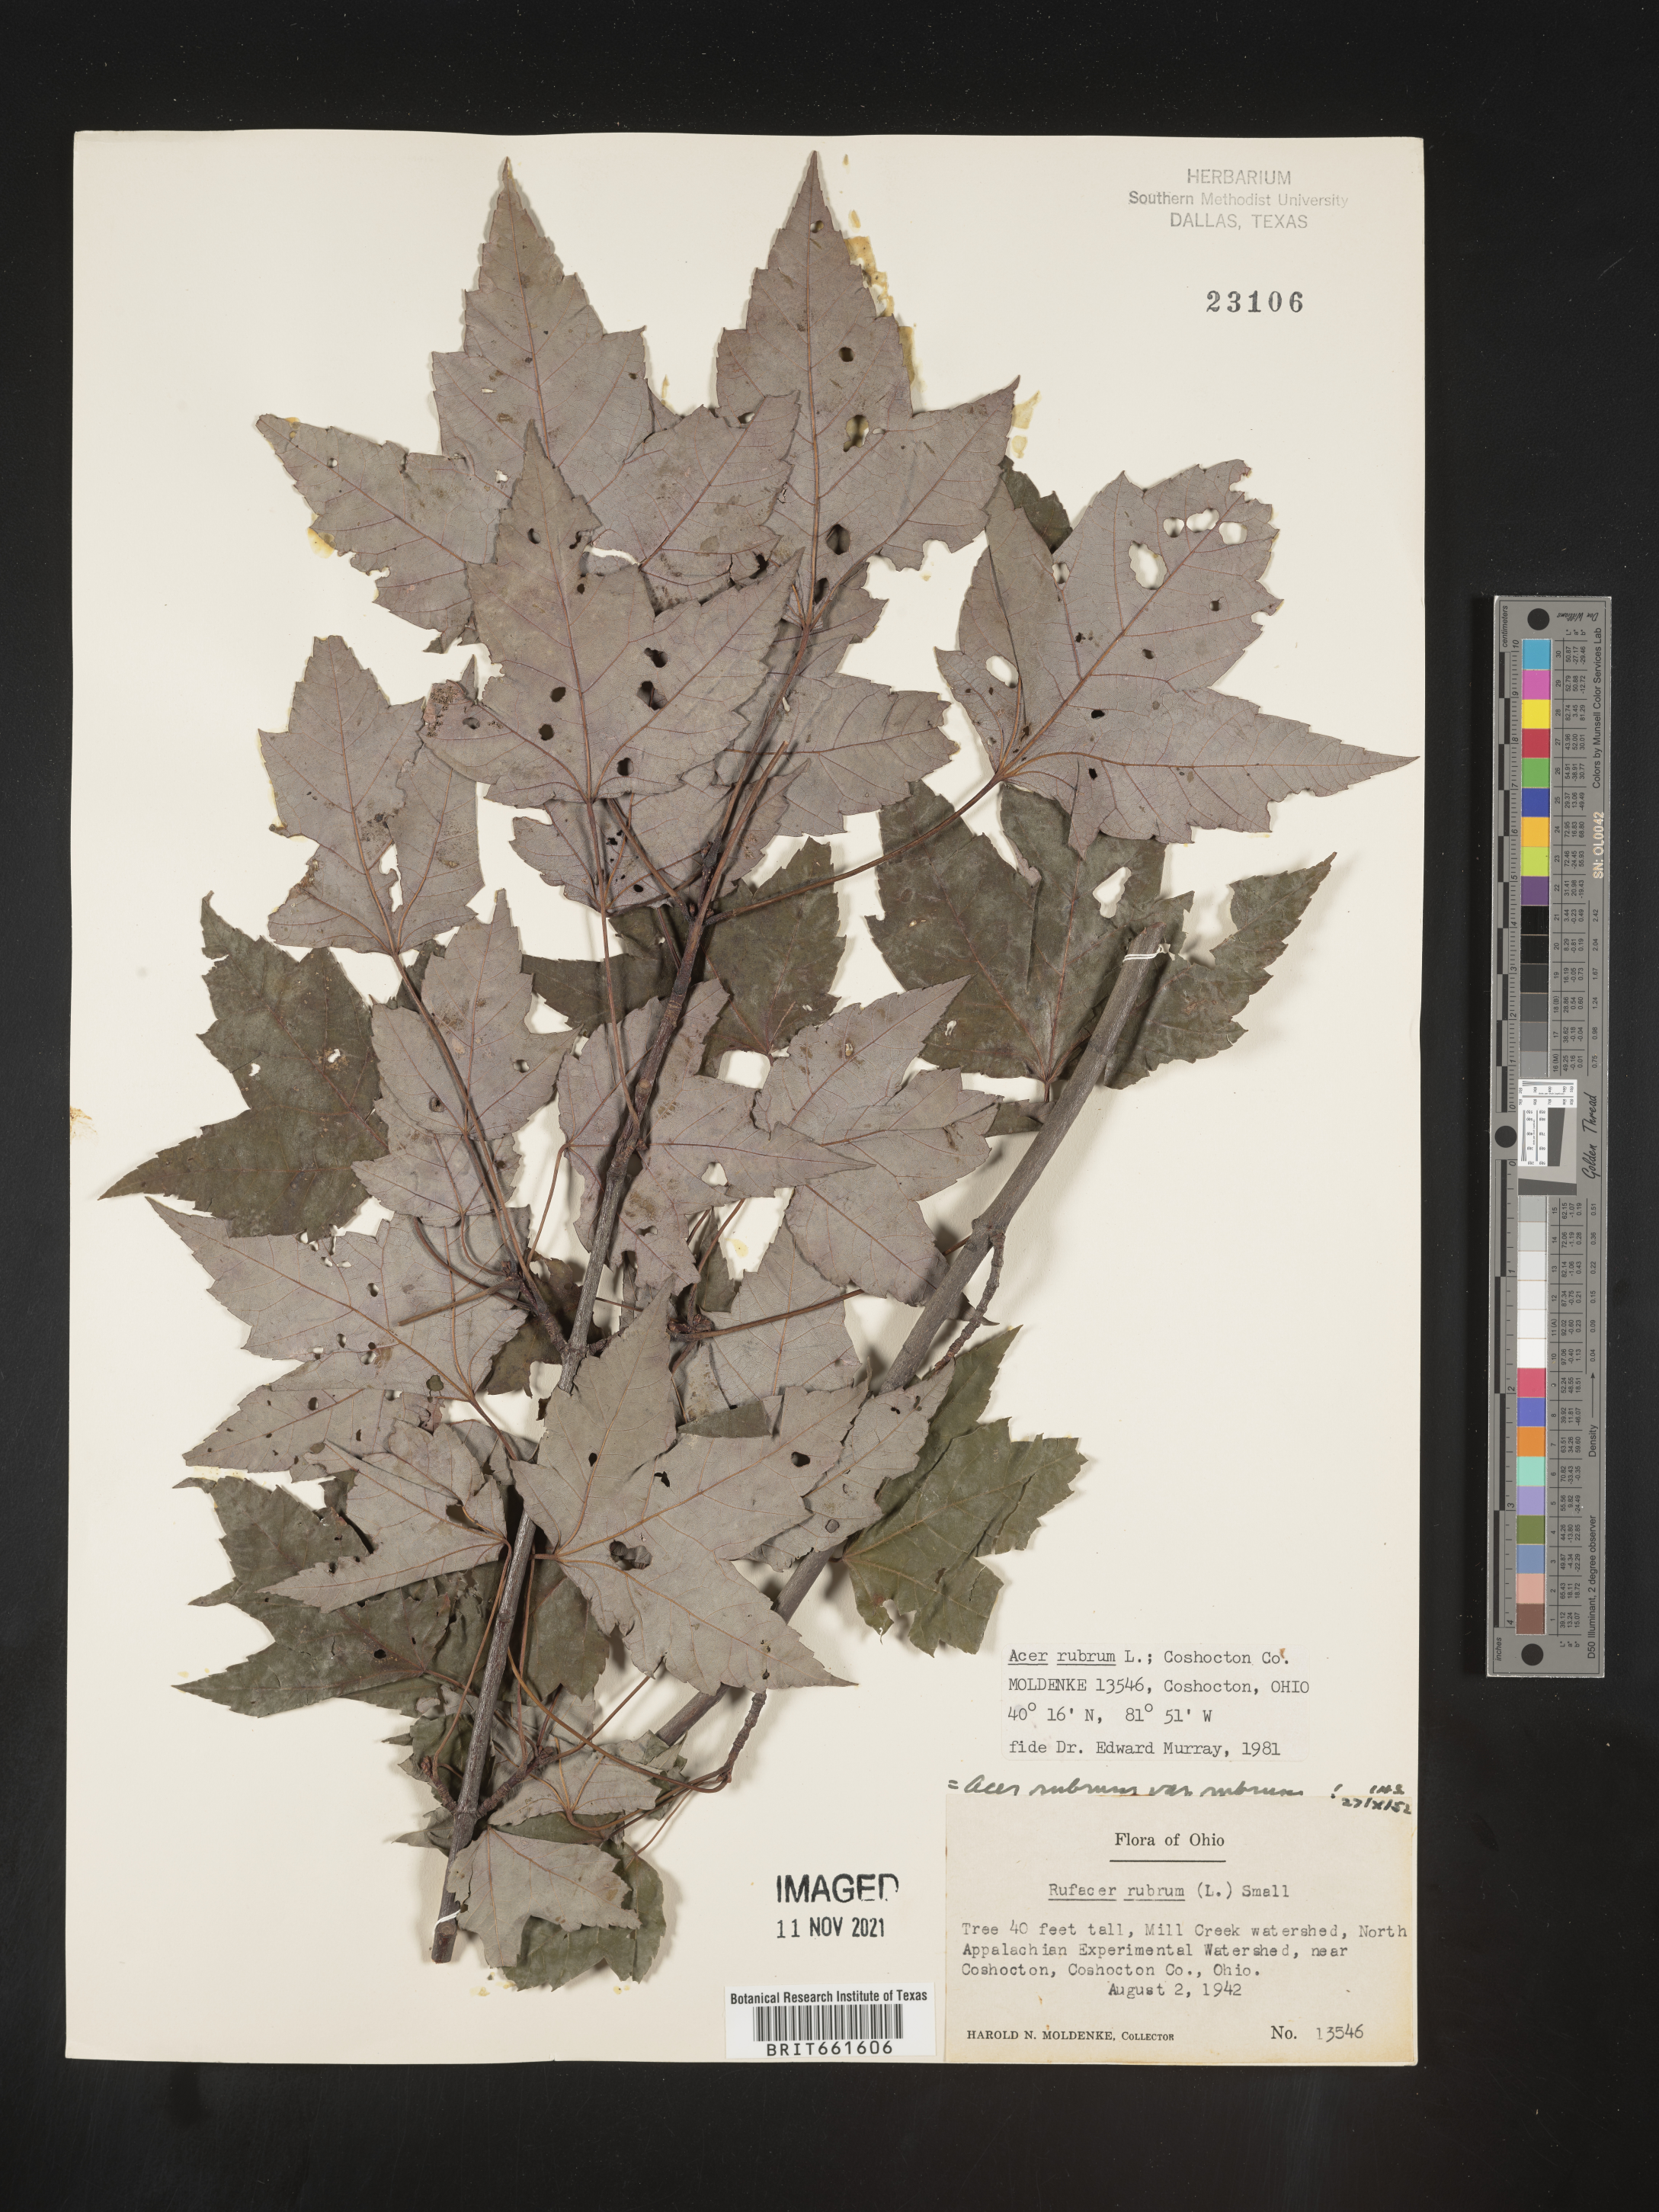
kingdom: Plantae
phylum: Tracheophyta
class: Magnoliopsida
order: Sapindales
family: Sapindaceae
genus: Acer
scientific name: Acer rubrum
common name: Red maple
